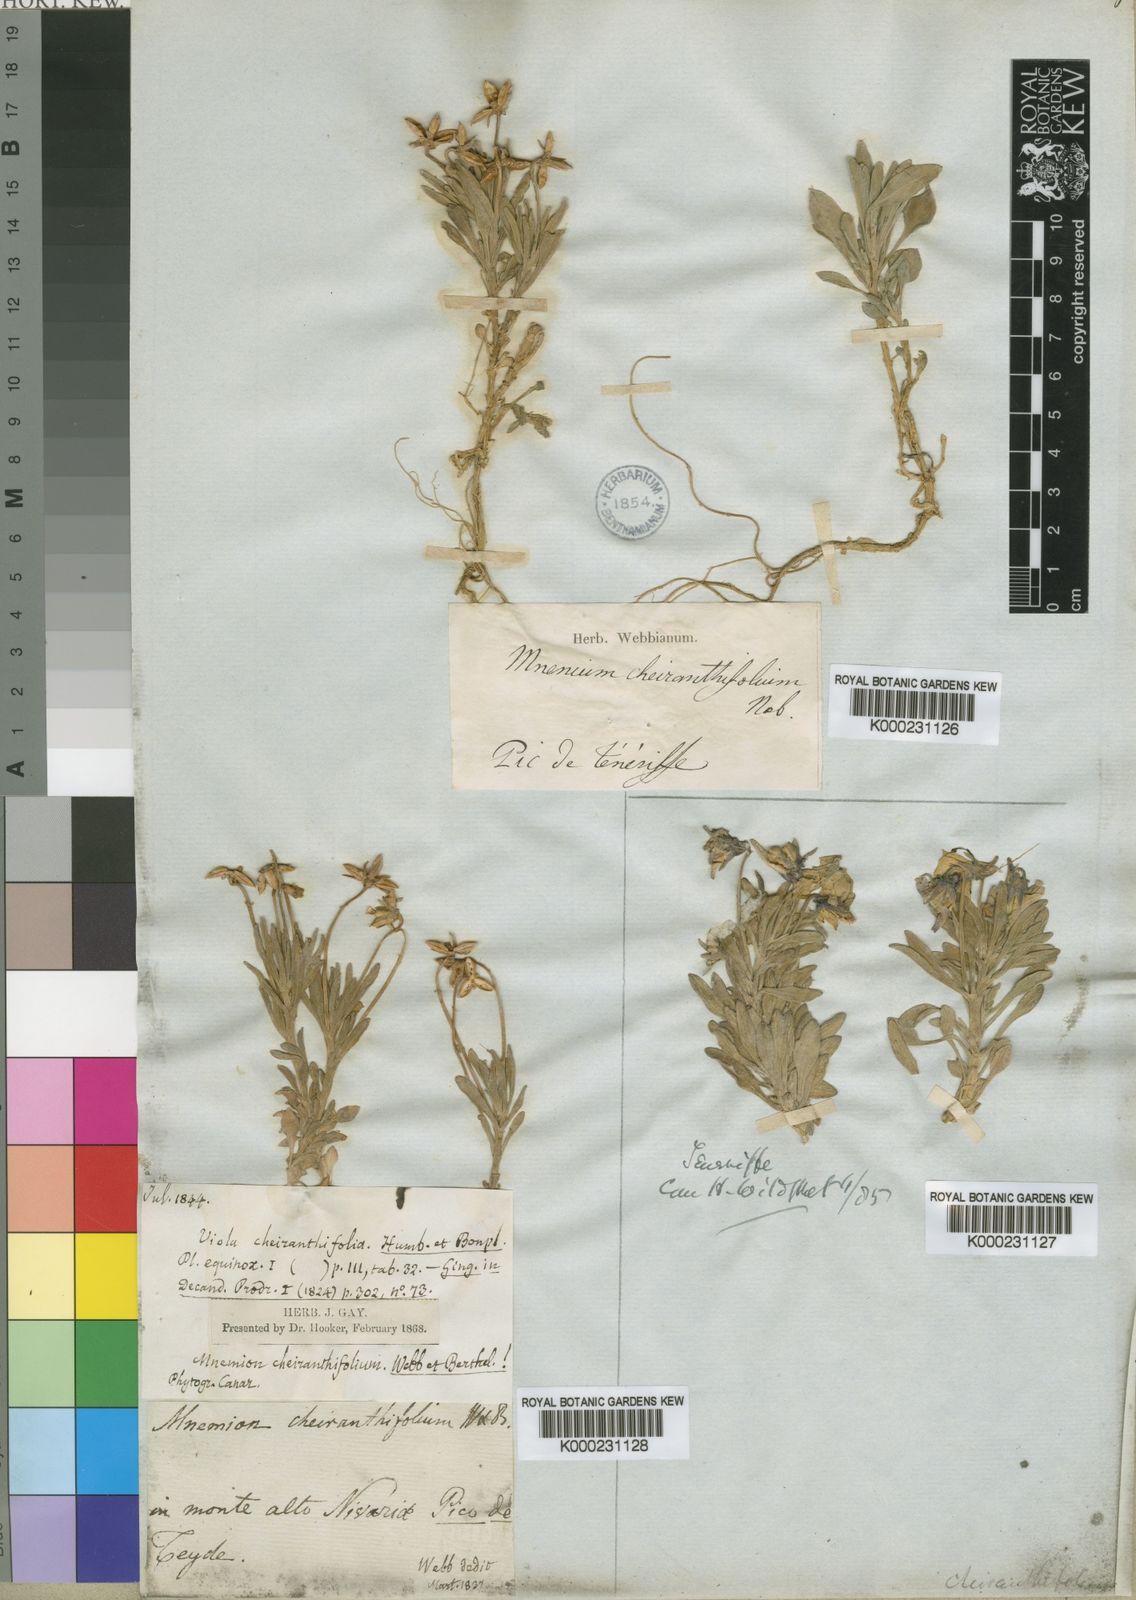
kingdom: Plantae
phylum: Tracheophyta
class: Magnoliopsida
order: Malpighiales
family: Violaceae
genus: Viola
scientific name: Viola cheiranthifolia
